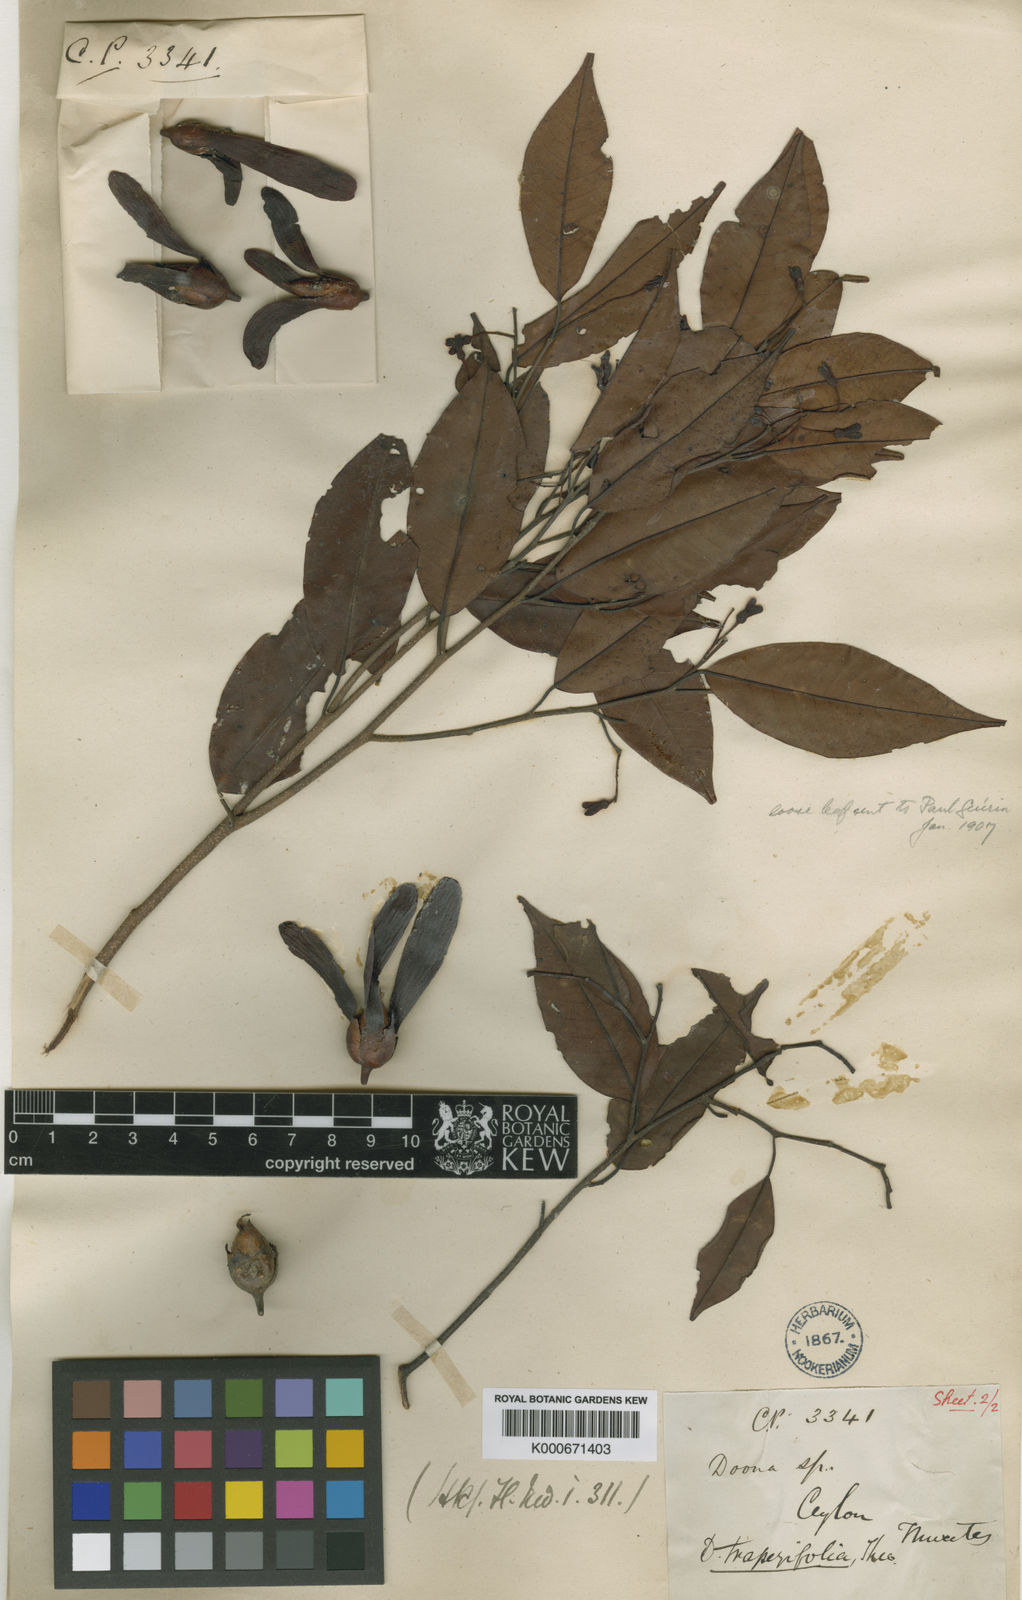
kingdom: Plantae
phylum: Tracheophyta
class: Magnoliopsida
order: Malvales
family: Dipterocarpaceae
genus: Doona
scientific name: Doona trapezifolia
